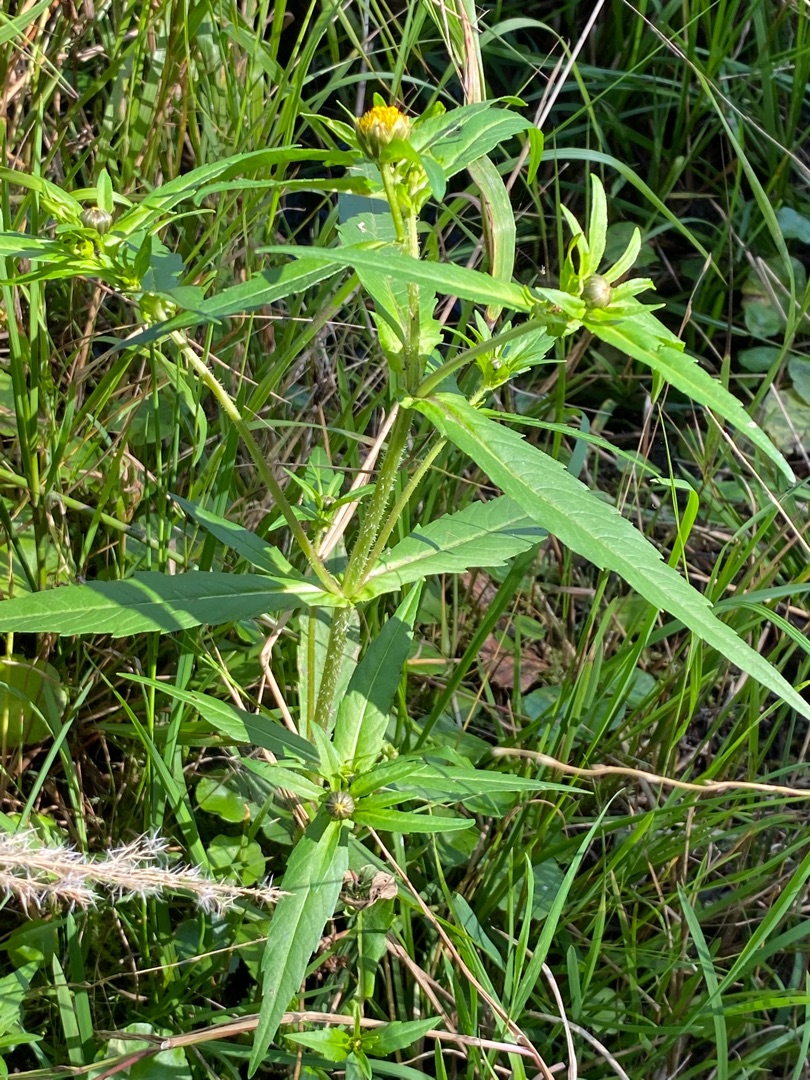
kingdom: Plantae
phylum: Tracheophyta
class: Magnoliopsida
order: Asterales
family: Asteraceae
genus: Bidens
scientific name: Bidens tripartita
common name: Fliget brøndsel
